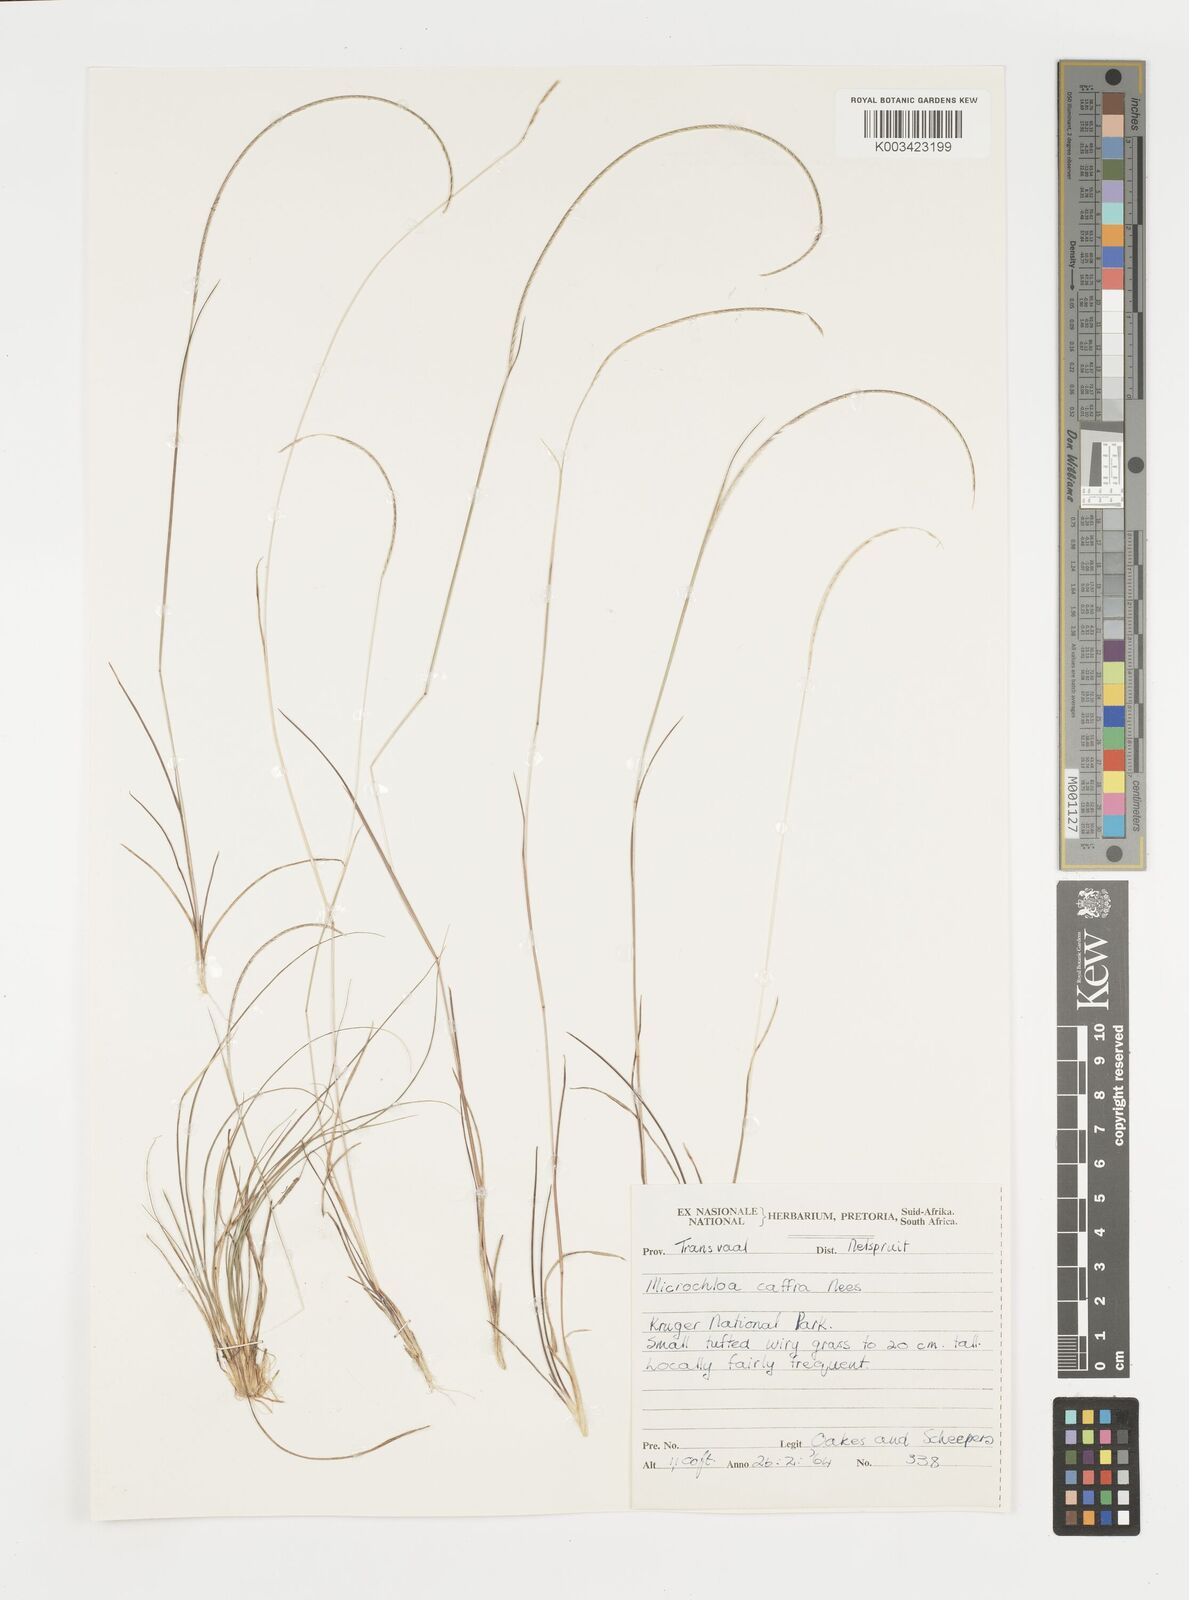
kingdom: Plantae
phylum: Tracheophyta
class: Liliopsida
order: Poales
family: Poaceae
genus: Microchloa
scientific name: Microchloa caffra
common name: Pincushion grass
